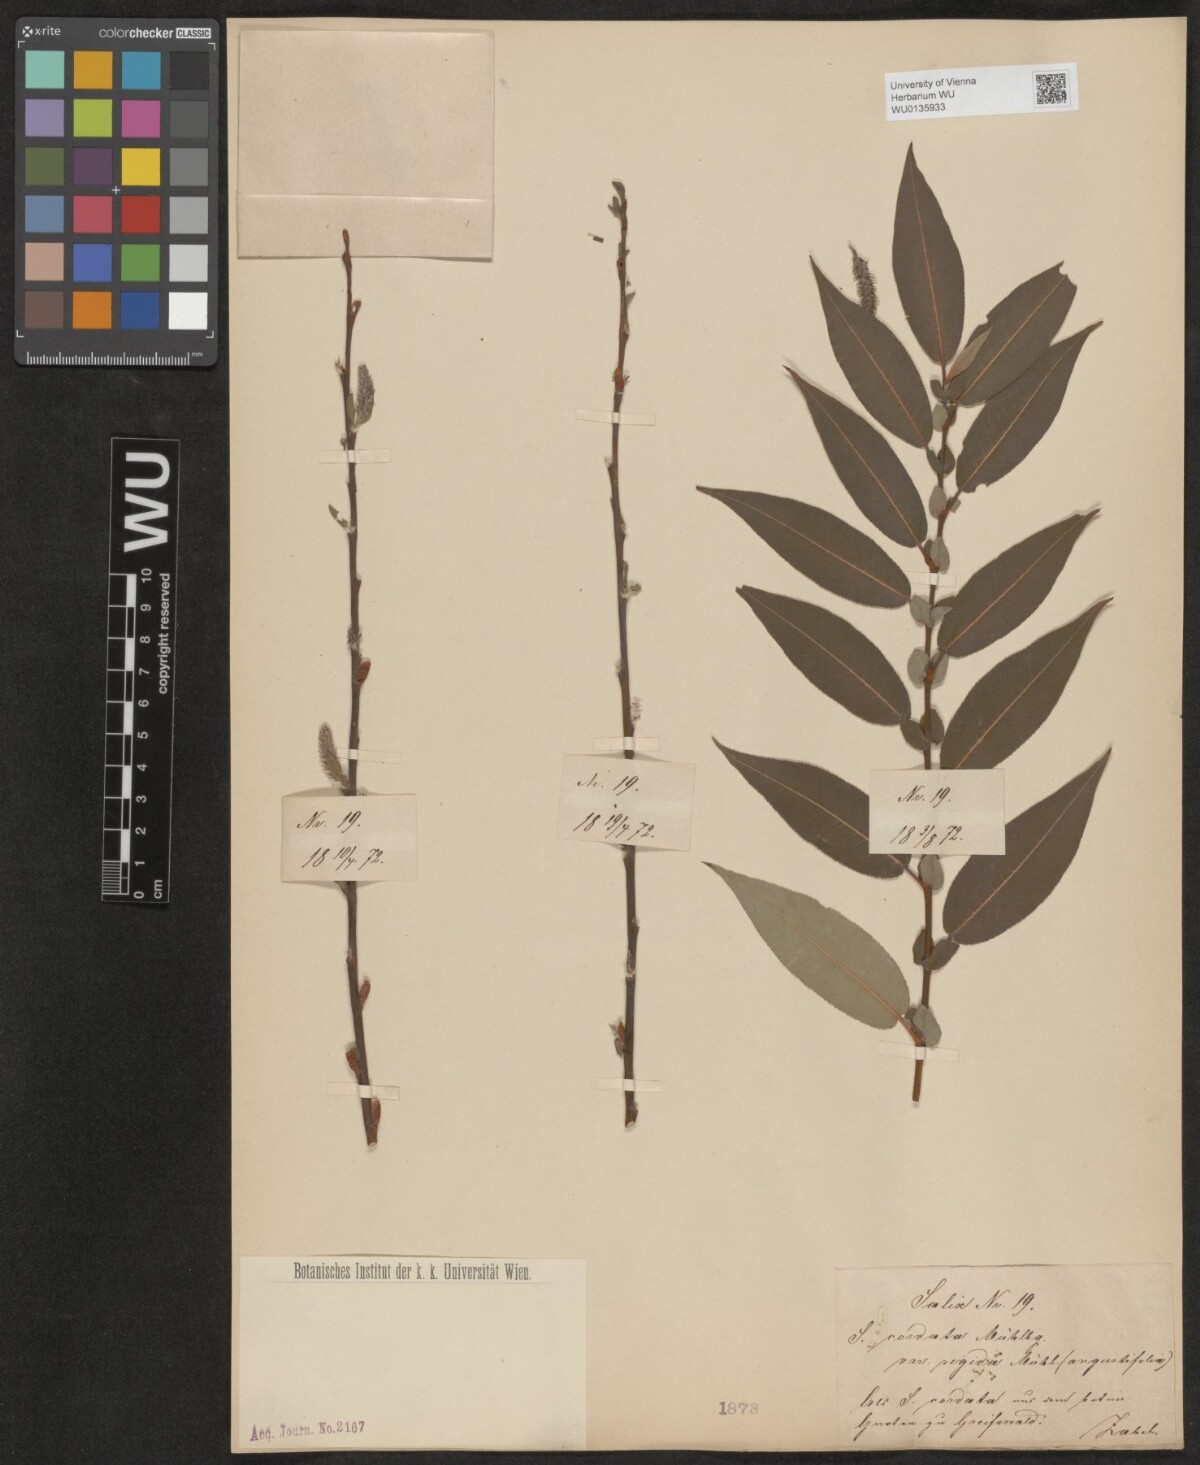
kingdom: Plantae
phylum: Tracheophyta
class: Magnoliopsida
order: Malpighiales
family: Salicaceae
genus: Salix
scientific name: Salix cordata
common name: Heart-leaf willow
